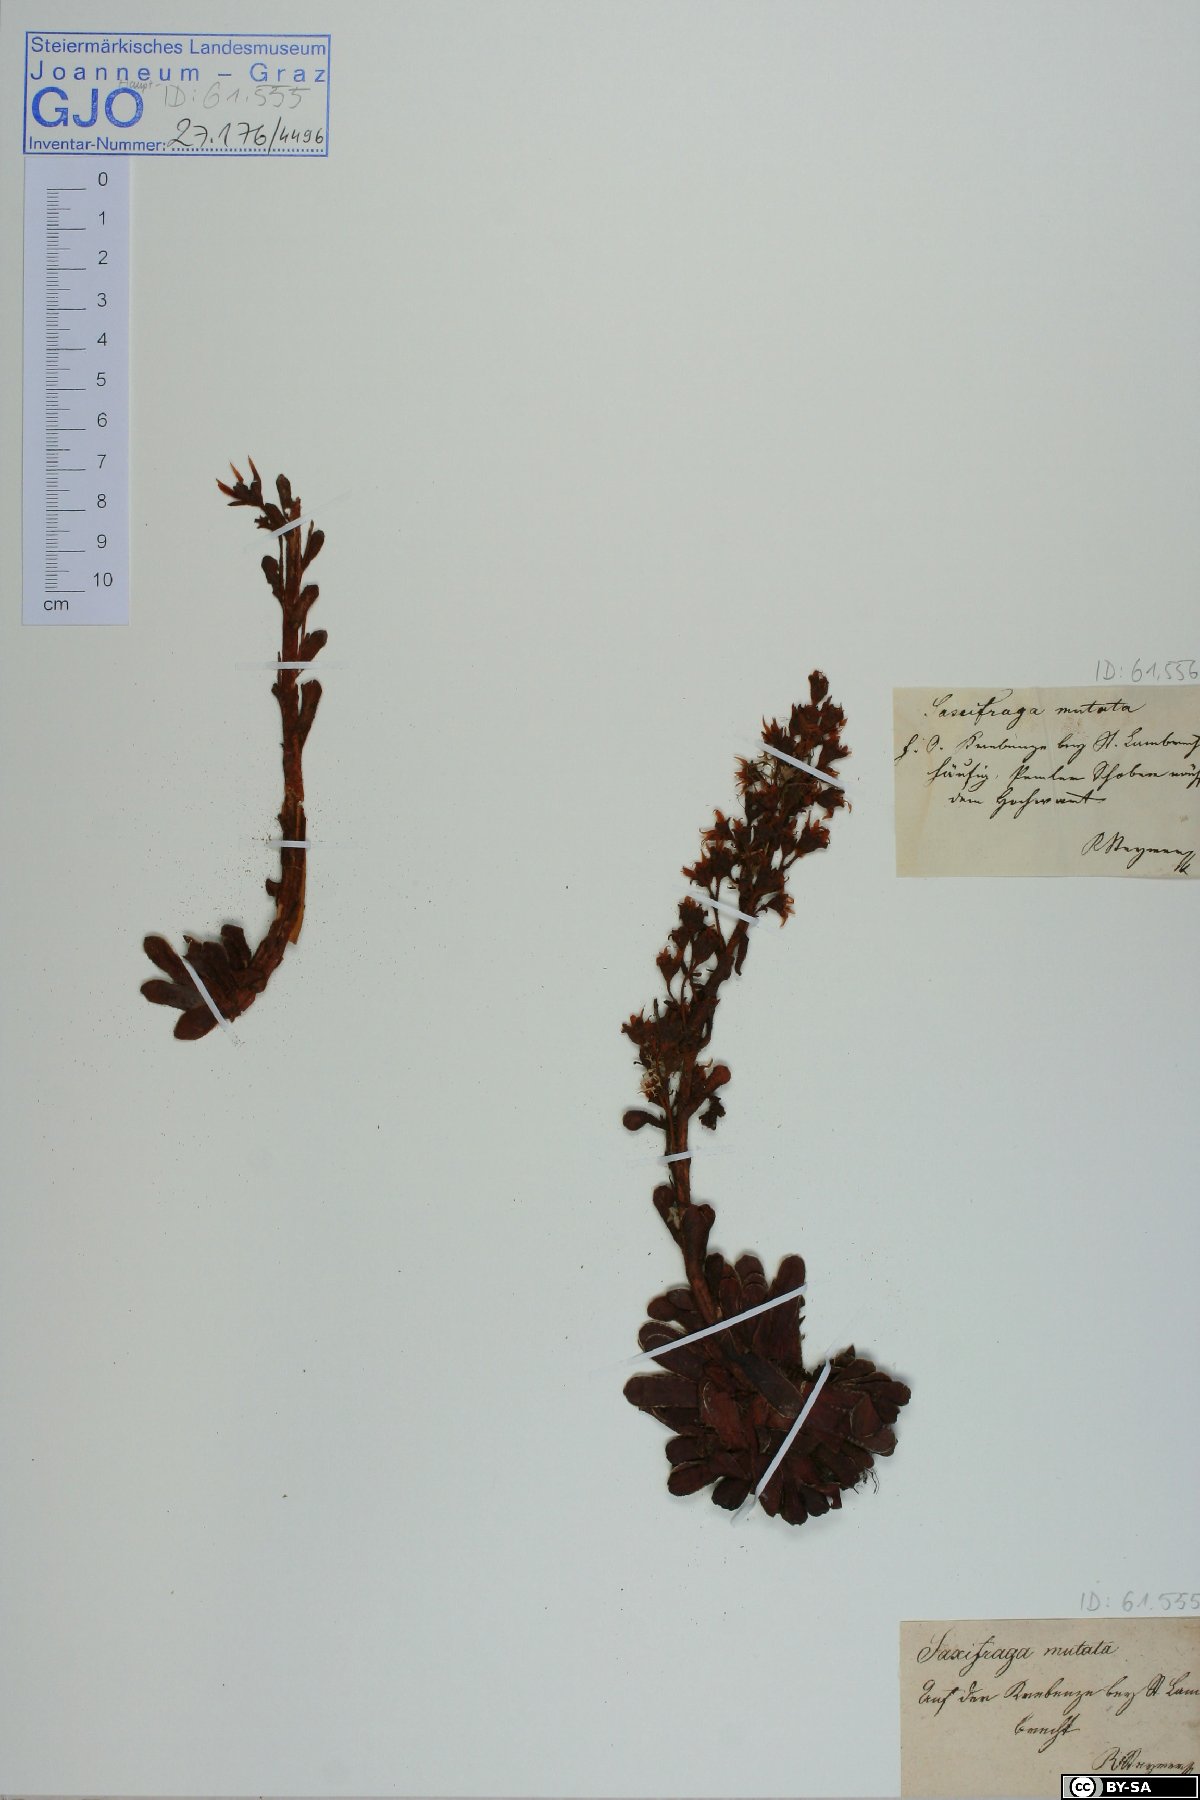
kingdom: Plantae
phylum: Tracheophyta
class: Magnoliopsida
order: Saxifragales
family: Saxifragaceae
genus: Saxifraga
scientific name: Saxifraga mutata
